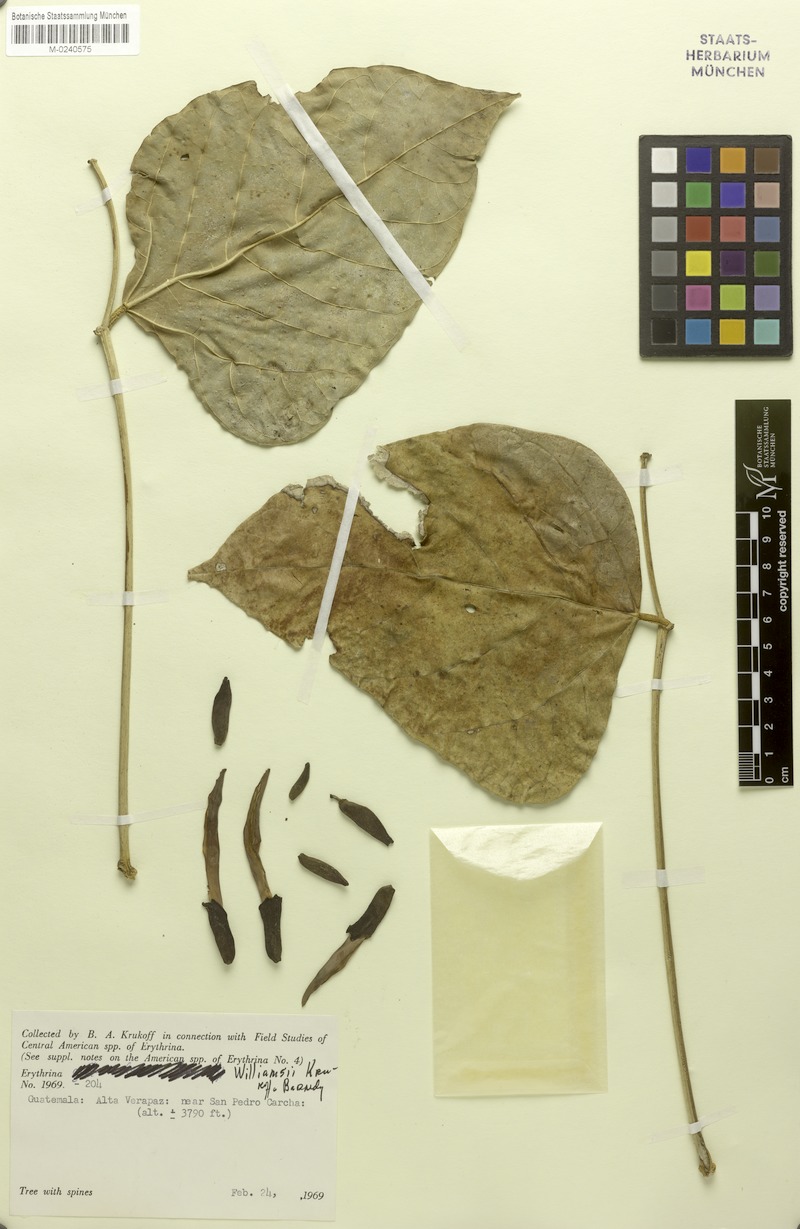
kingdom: Plantae
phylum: Tracheophyta
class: Magnoliopsida
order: Fabales
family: Fabaceae
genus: Erythrina
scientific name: Erythrina williamsii
